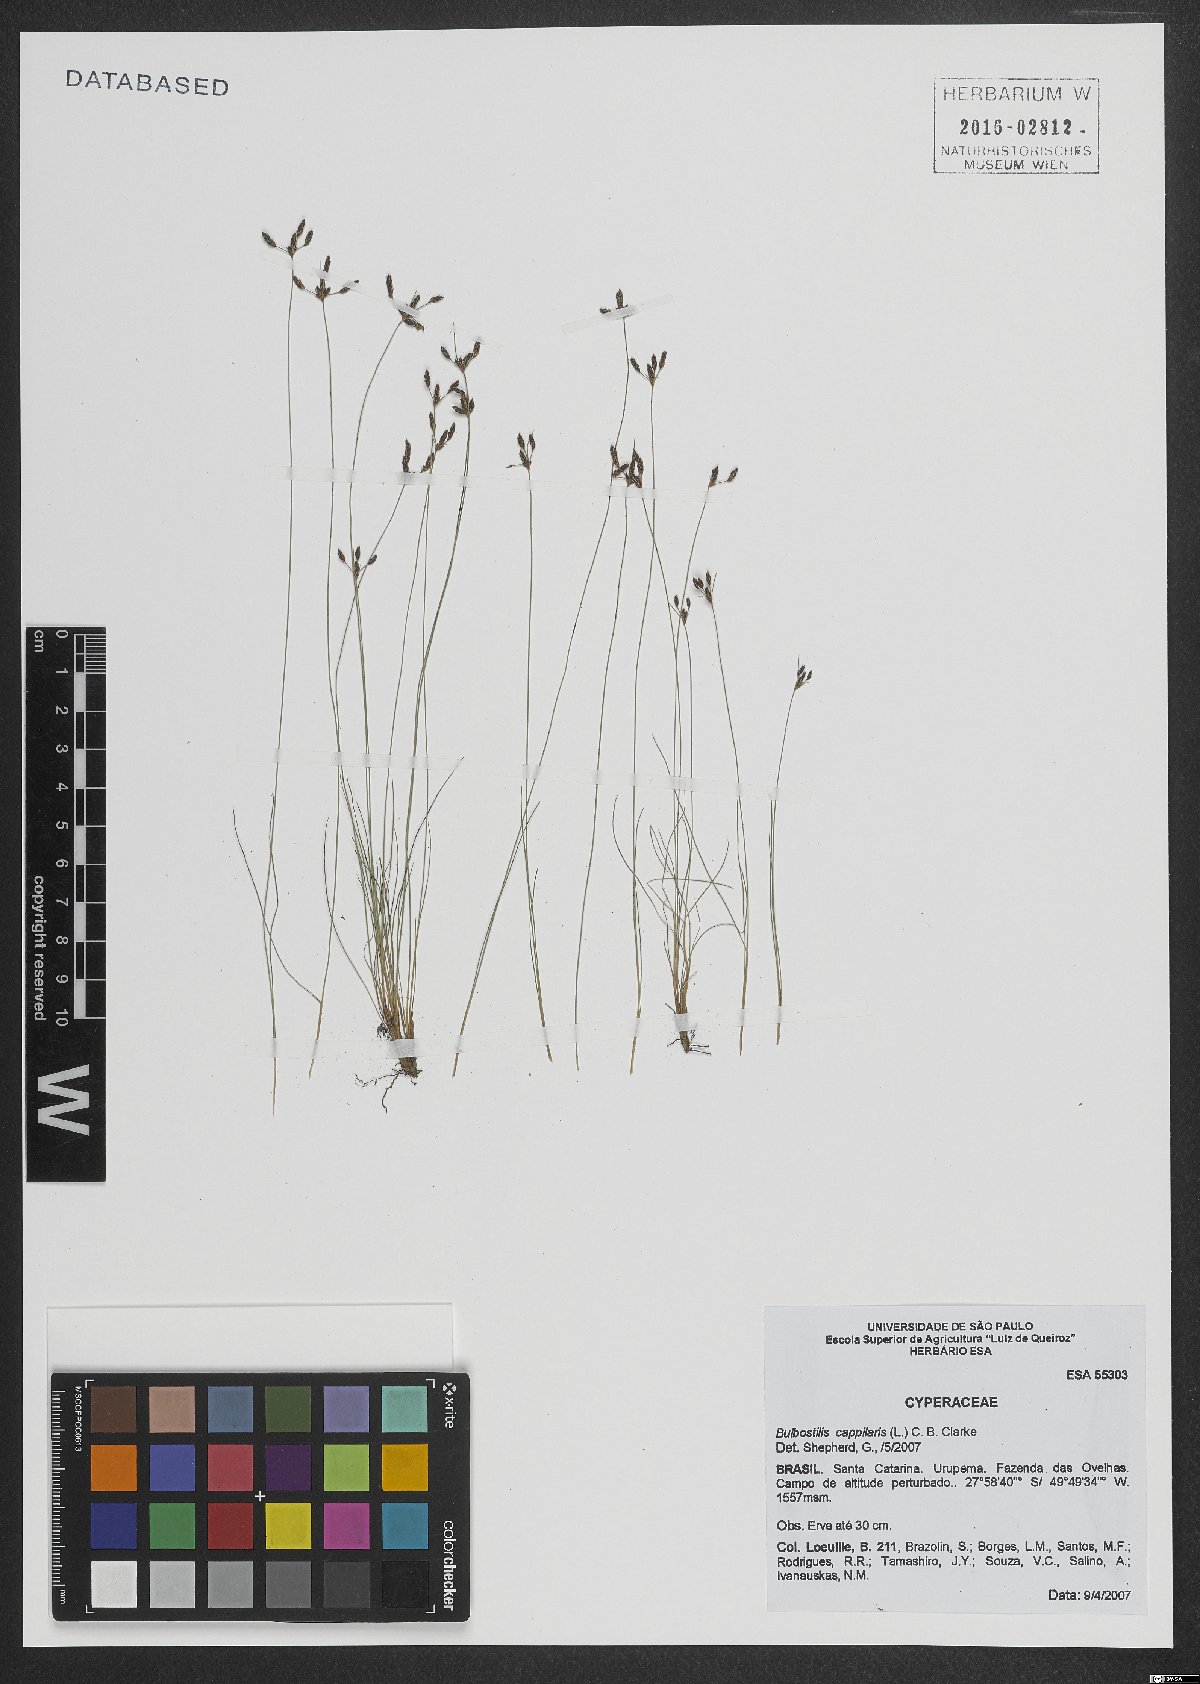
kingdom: Plantae
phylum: Tracheophyta
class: Liliopsida
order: Poales
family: Cyperaceae
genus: Bulbostylis
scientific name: Bulbostylis capillaris
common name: Densetuft hairsedge
